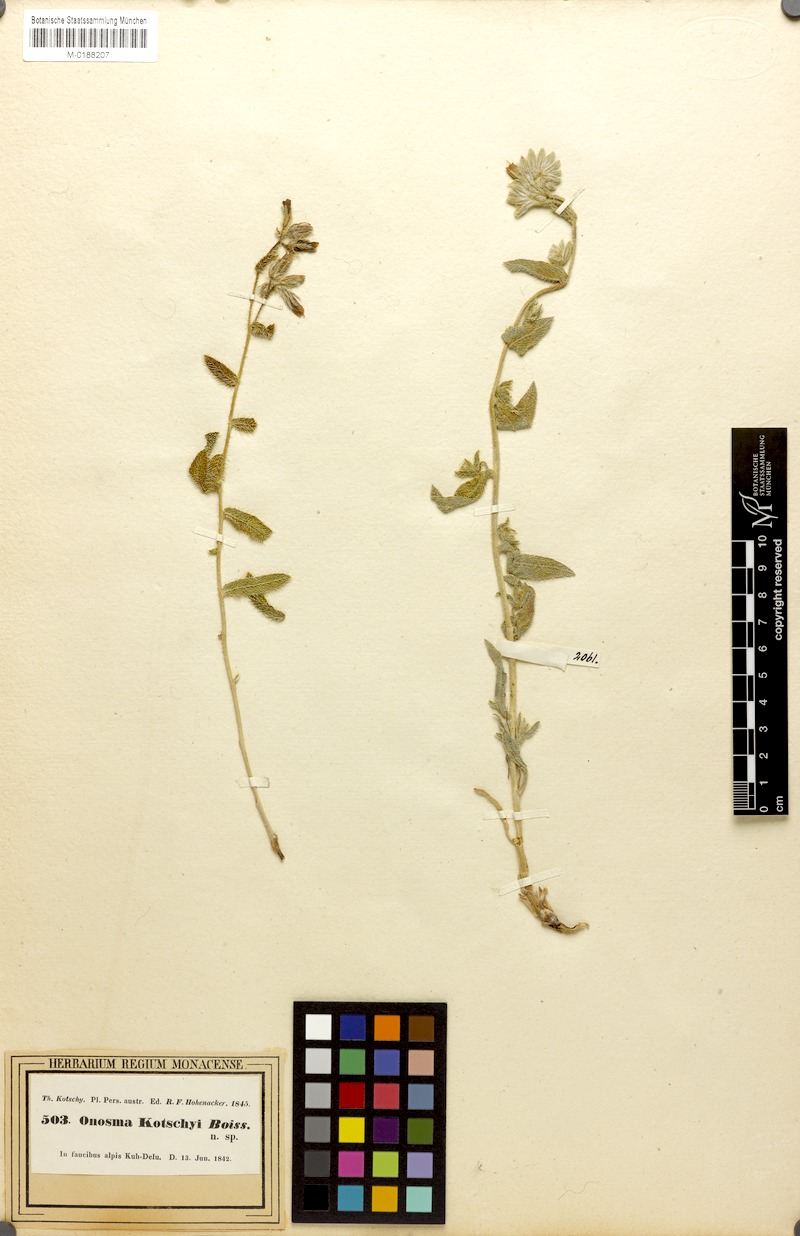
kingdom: Plantae
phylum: Tracheophyta
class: Magnoliopsida
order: Boraginales
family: Boraginaceae
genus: Onosma
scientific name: Onosma kotschyi
